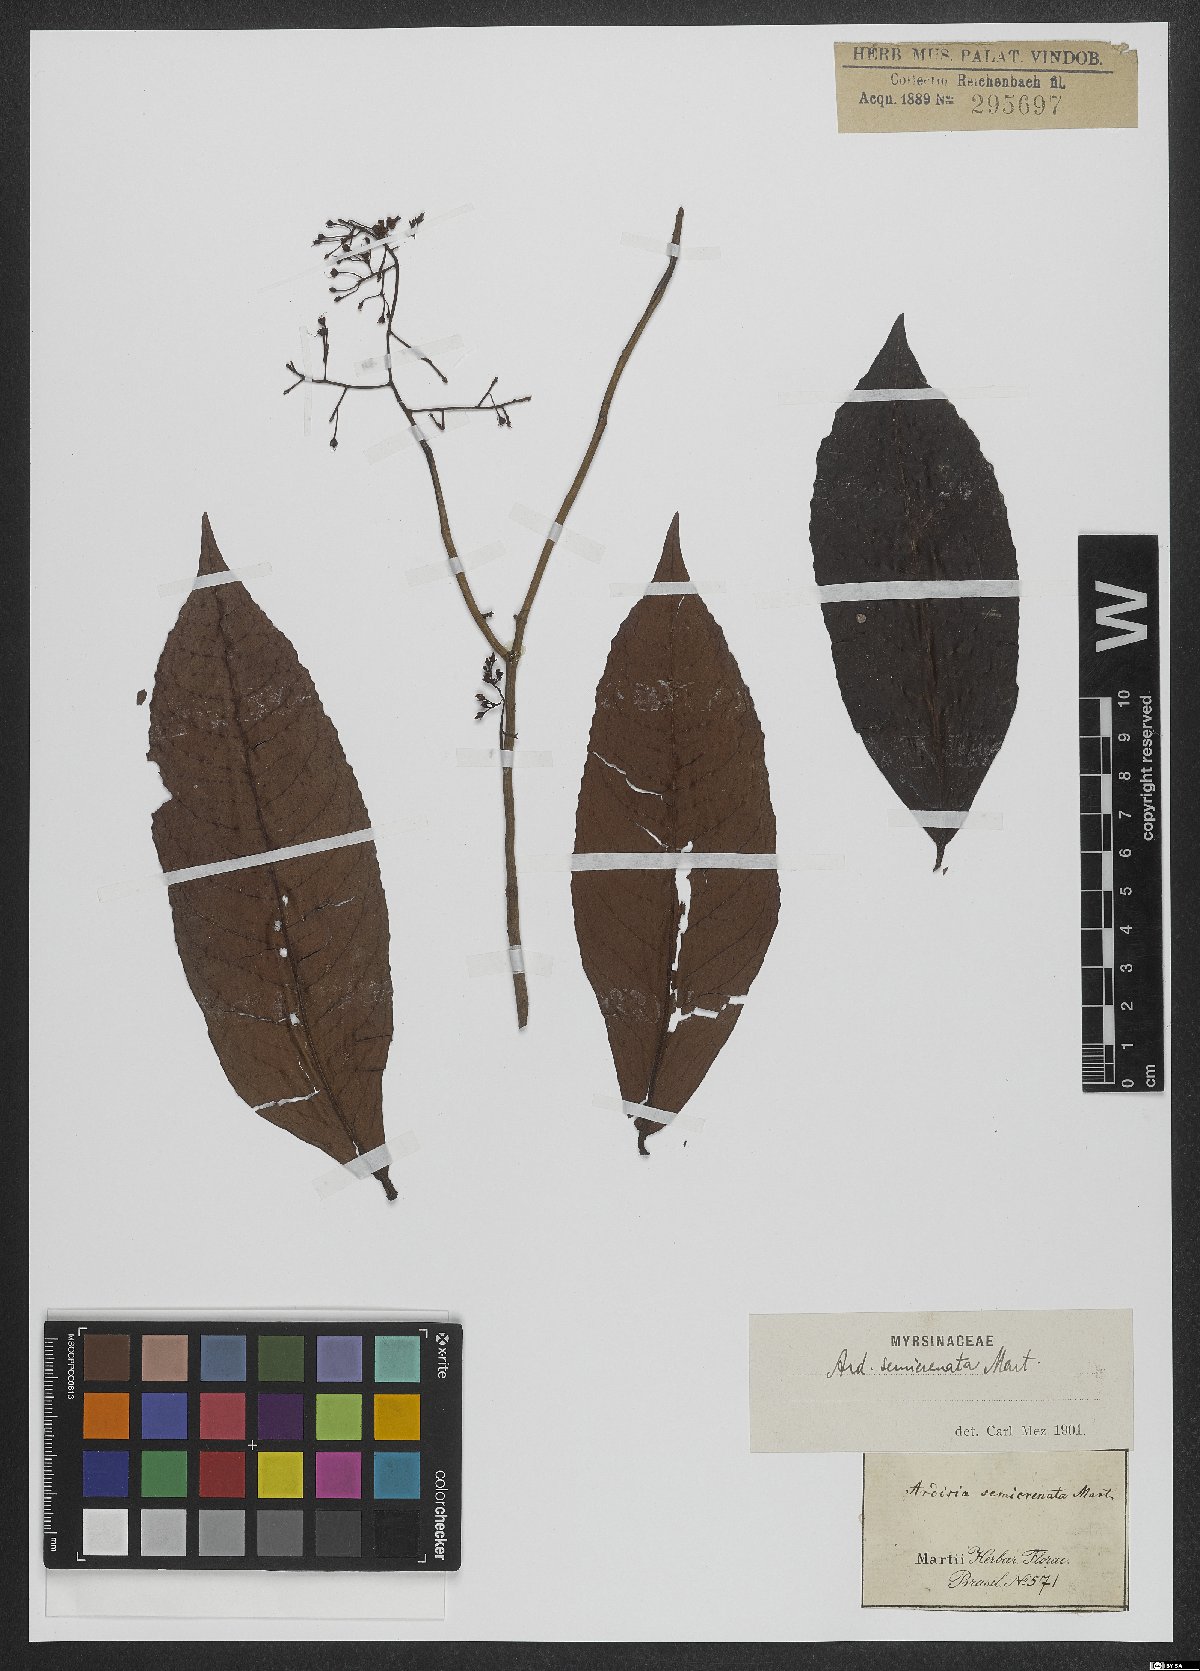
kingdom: Plantae
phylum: Tracheophyta
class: Magnoliopsida
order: Ericales
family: Primulaceae
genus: Ardisia
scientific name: Ardisia guianensis
